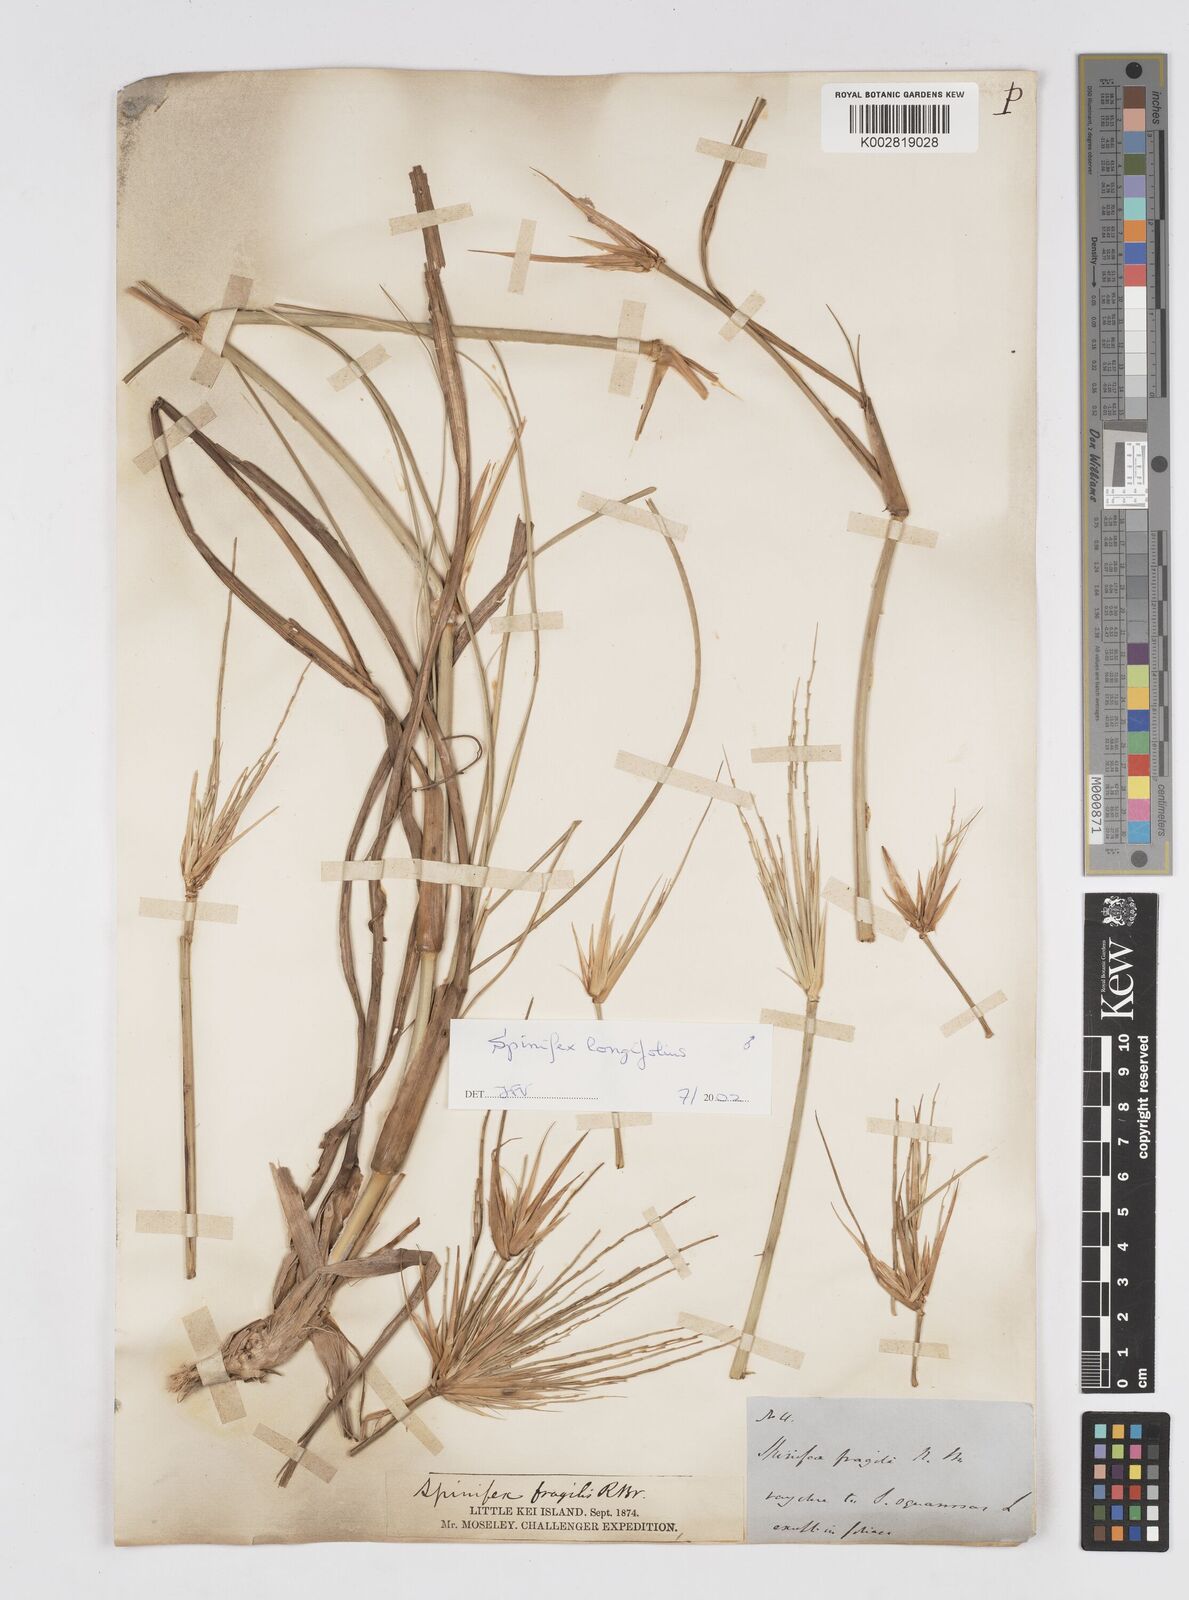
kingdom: Plantae
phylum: Tracheophyta
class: Liliopsida
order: Poales
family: Poaceae
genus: Spinifex
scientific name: Spinifex longifolius
